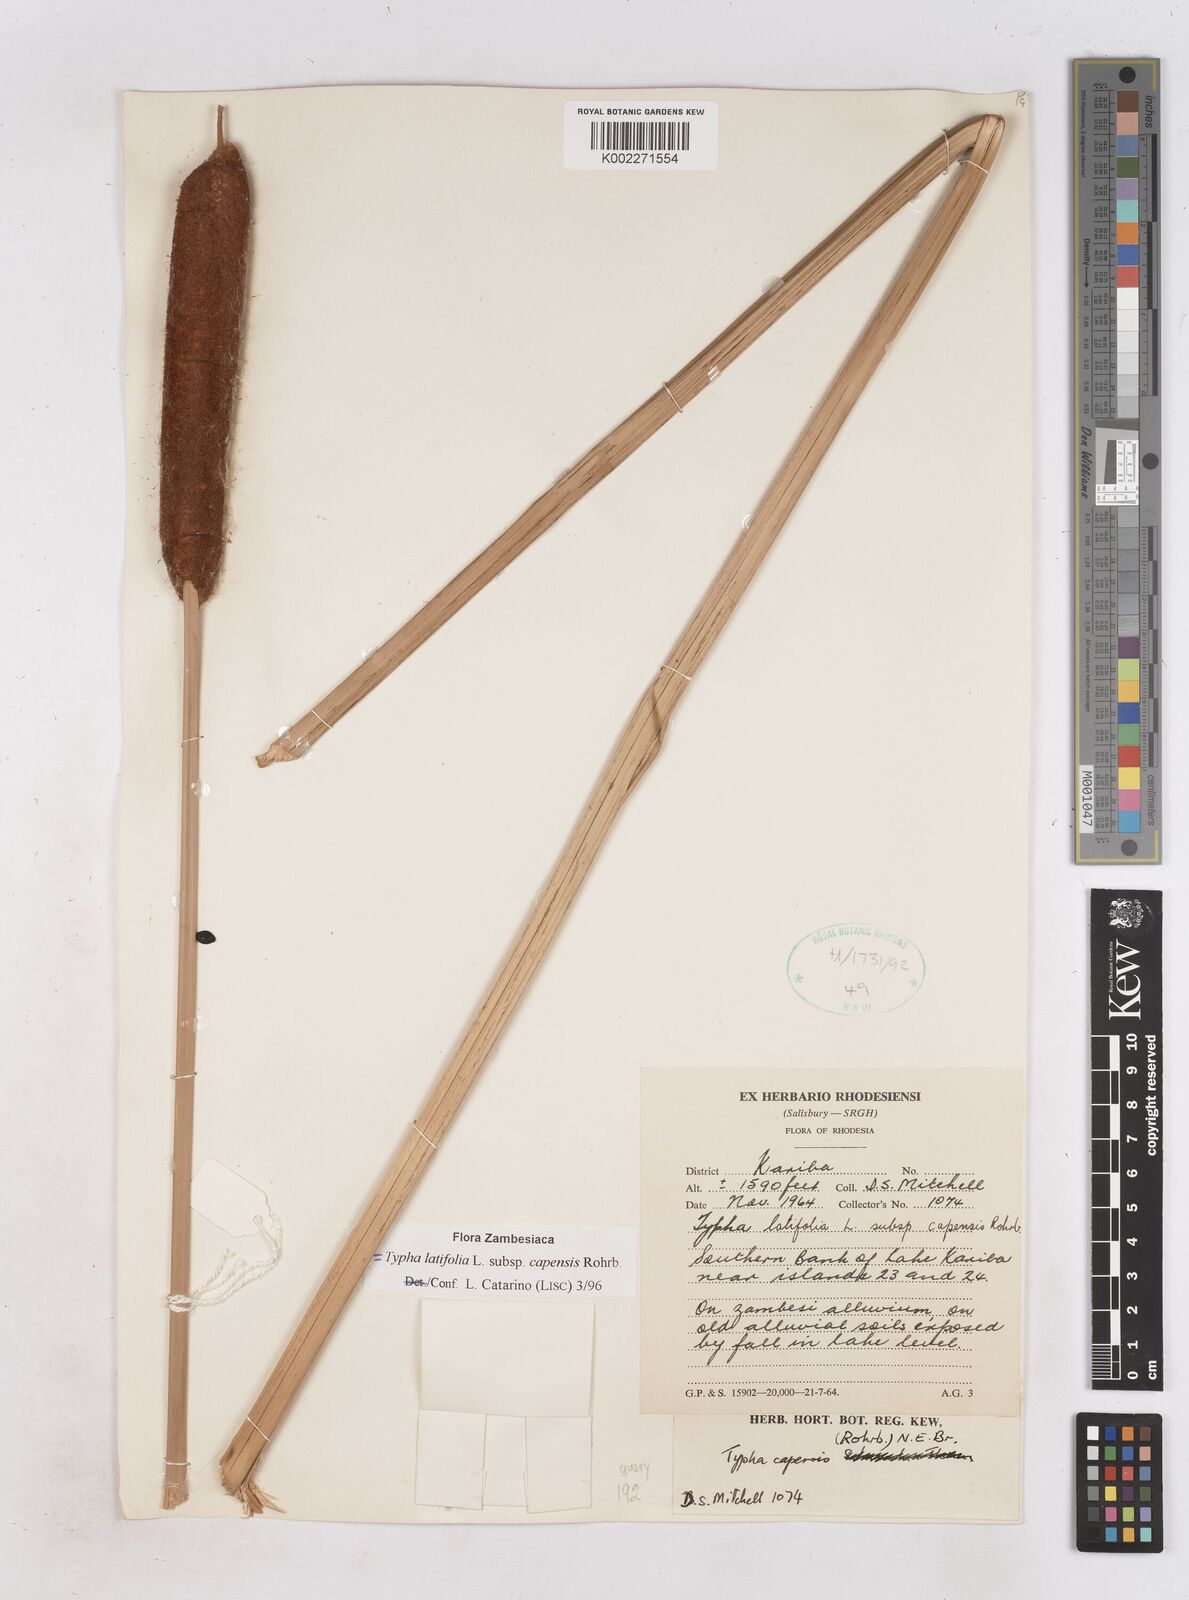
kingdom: Plantae
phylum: Tracheophyta
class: Liliopsida
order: Poales
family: Typhaceae
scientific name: Typhaceae
